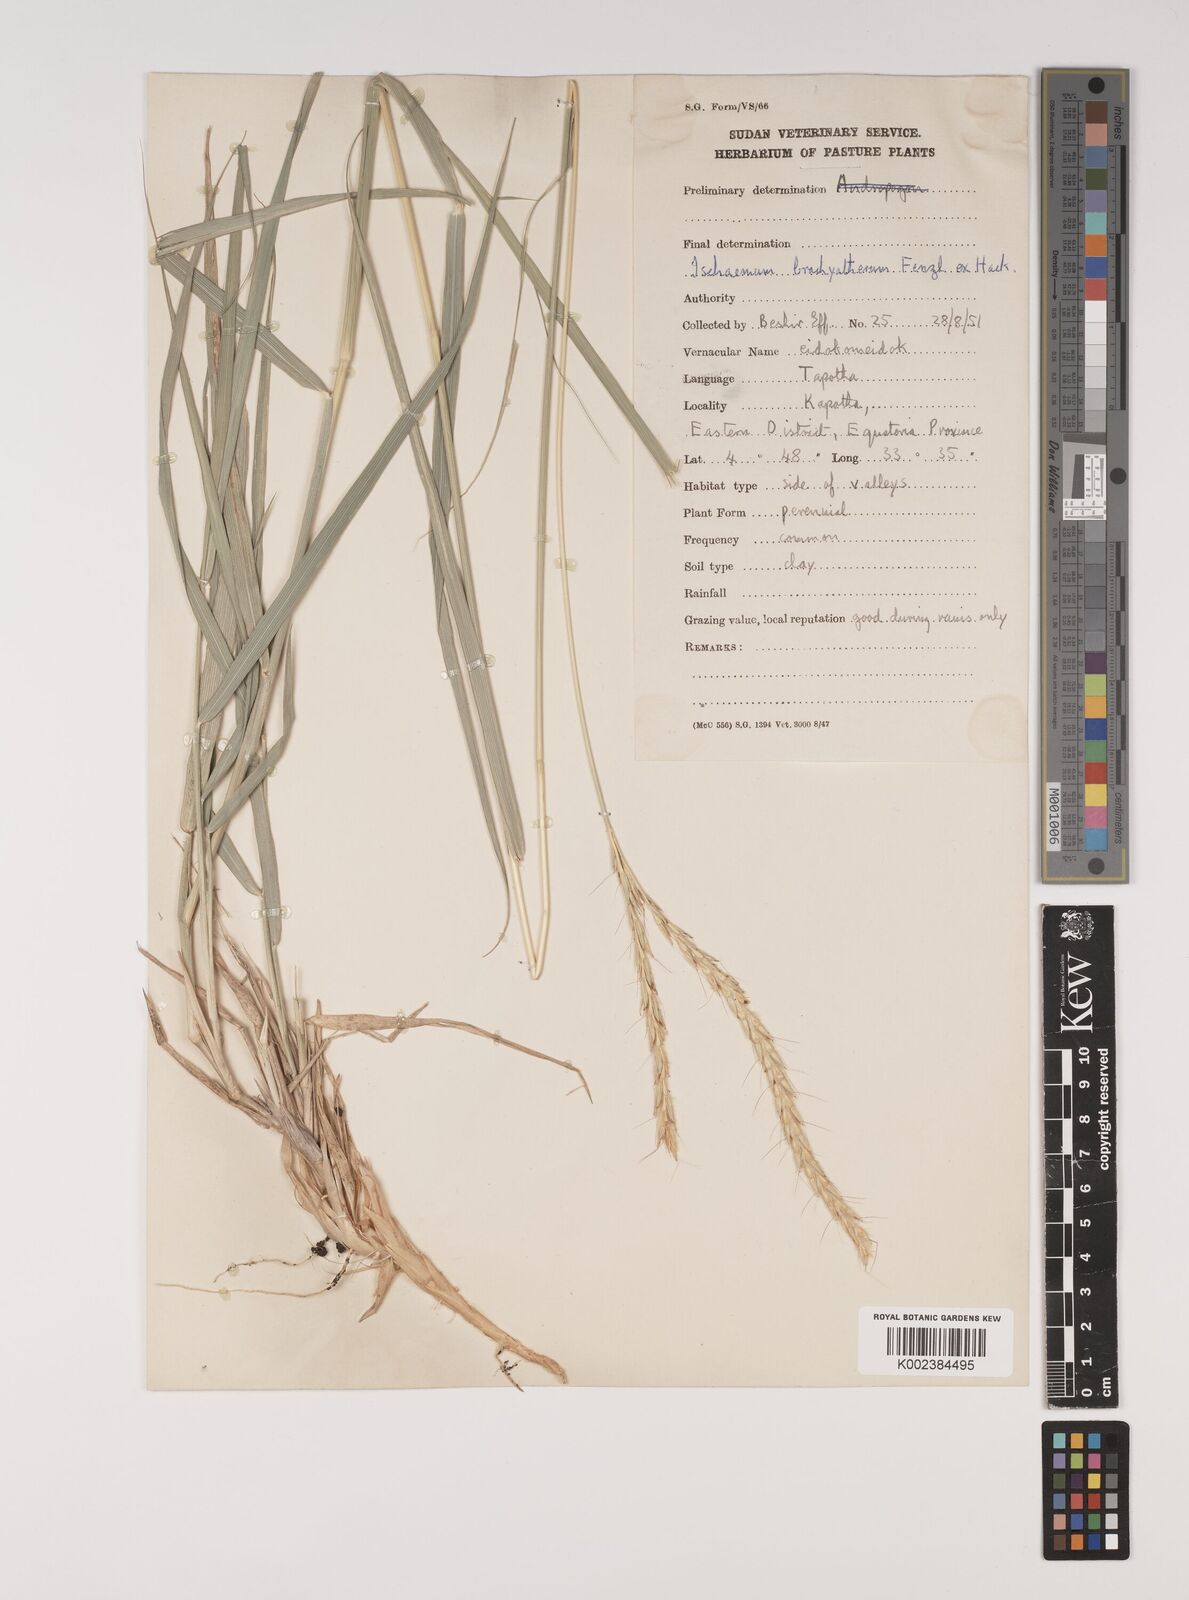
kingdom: Plantae
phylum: Tracheophyta
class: Liliopsida
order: Poales
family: Poaceae
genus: Ischaemum
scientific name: Ischaemum afrum
